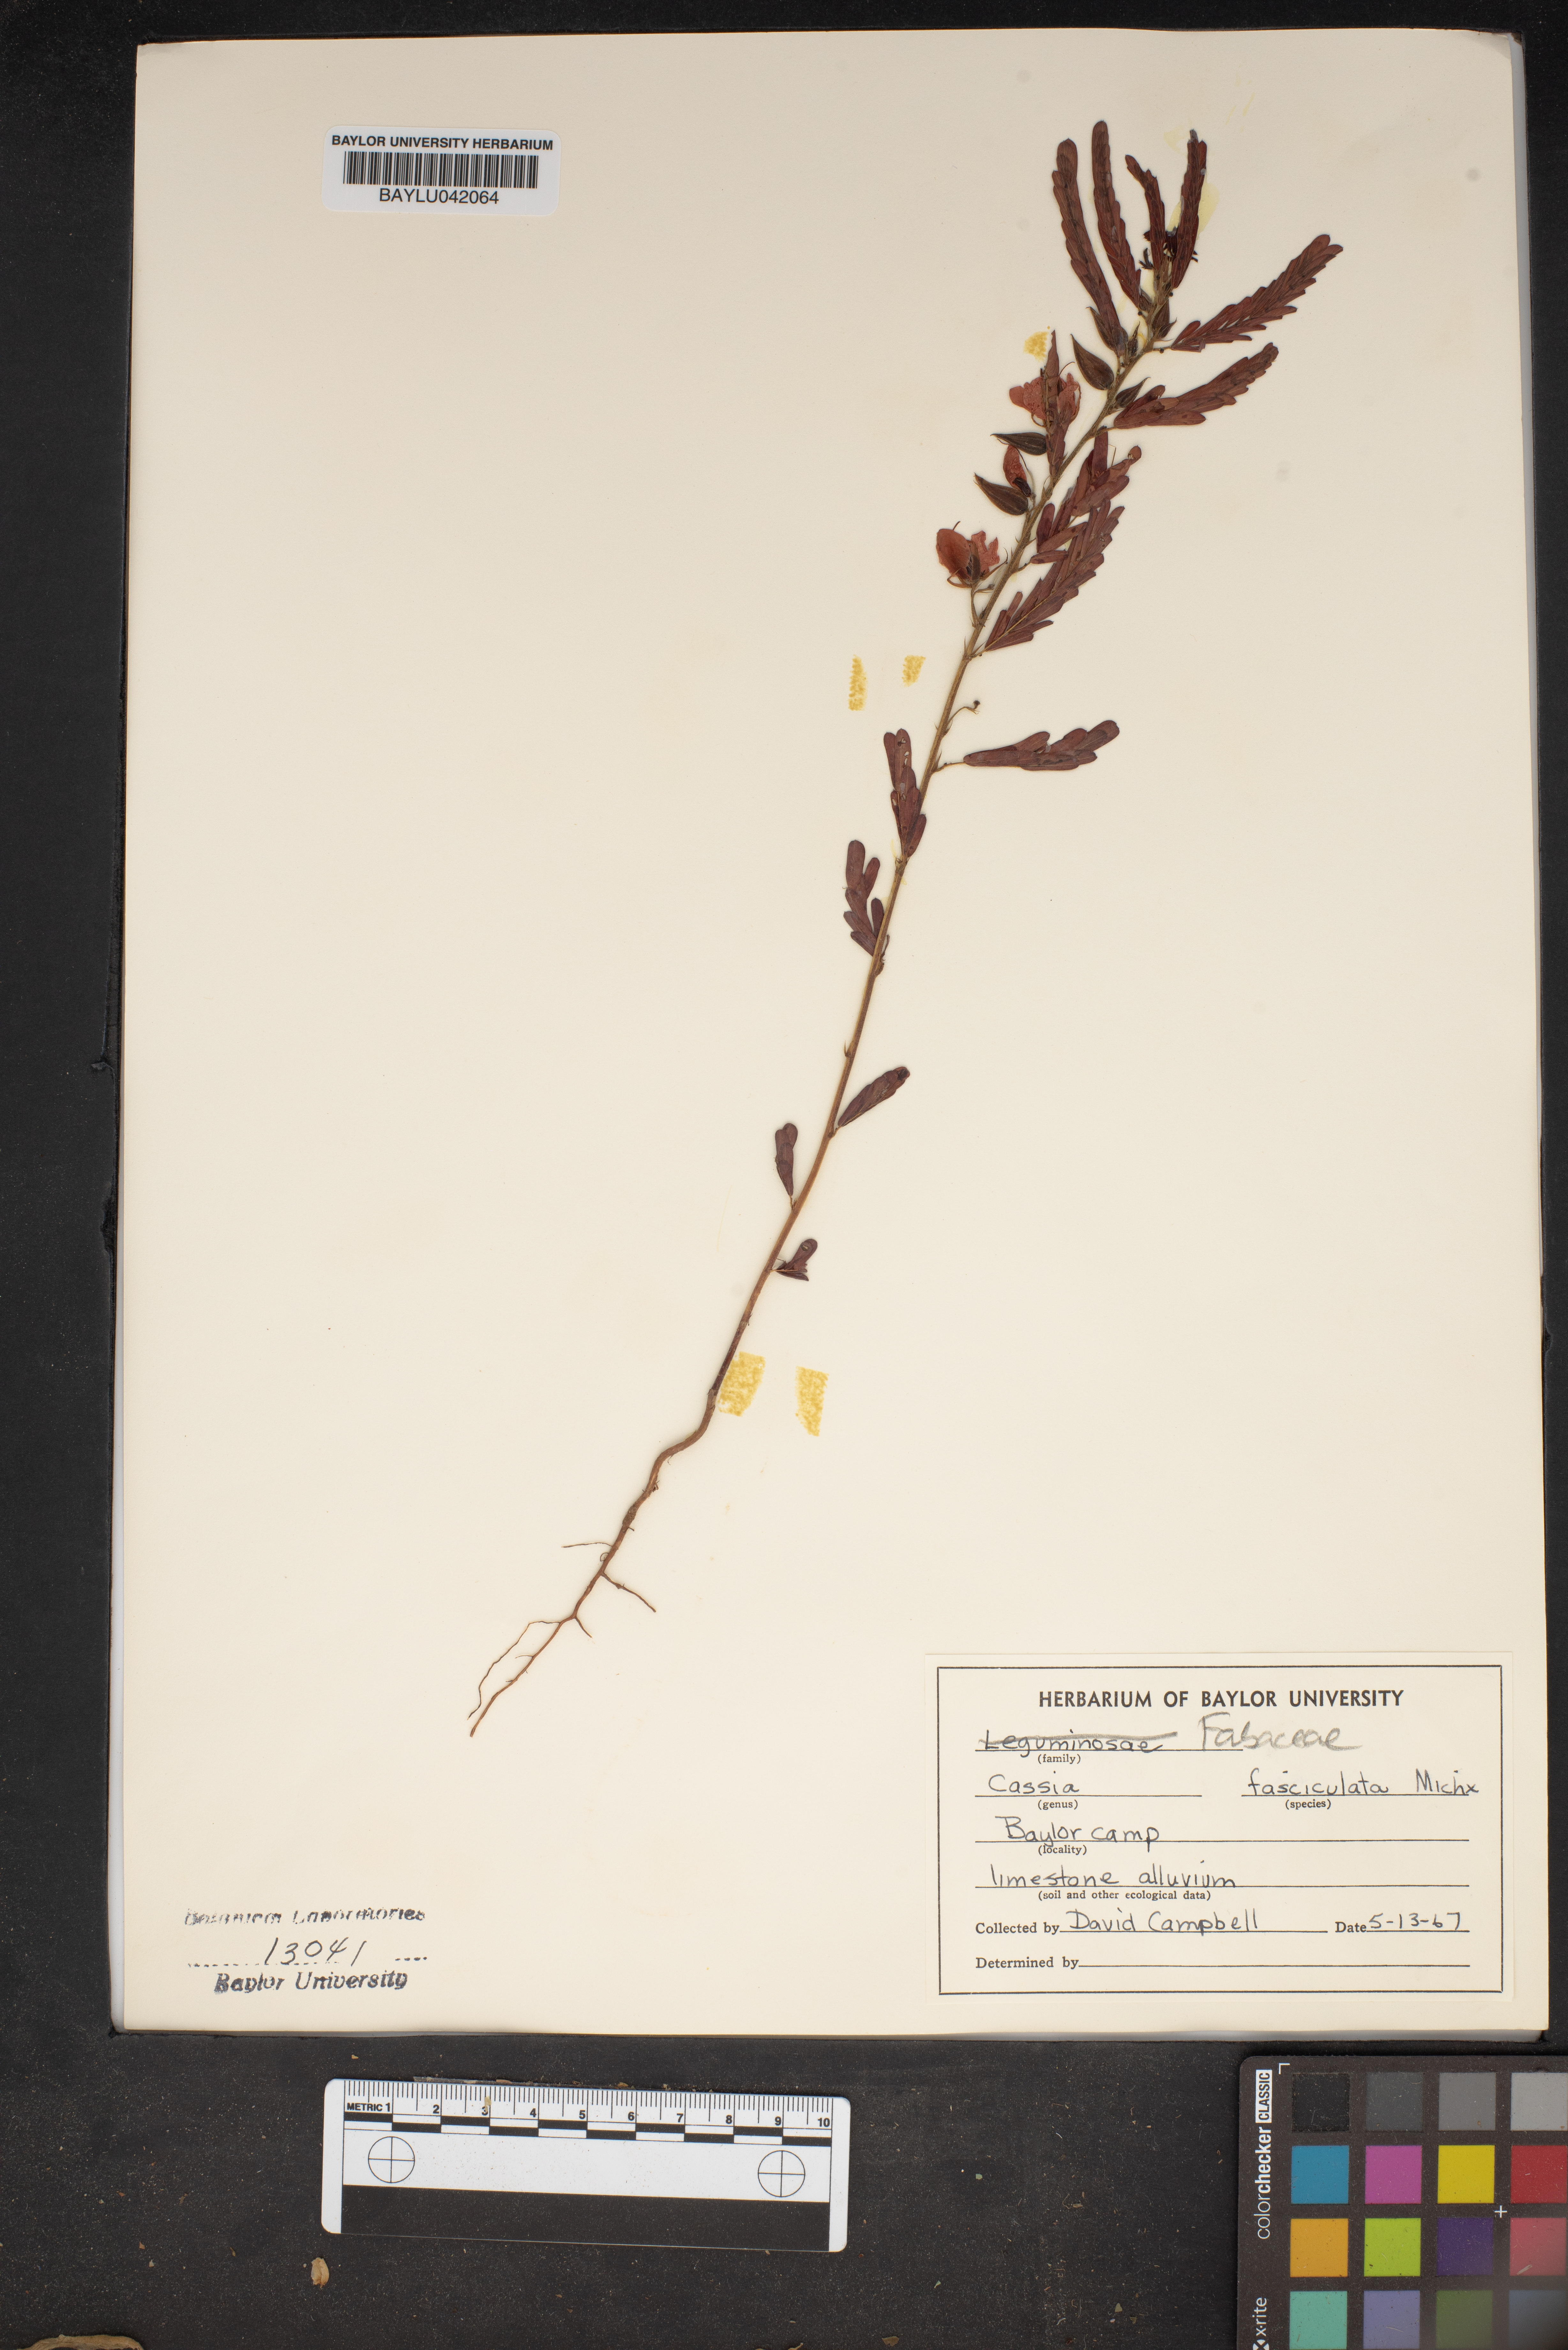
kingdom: Plantae
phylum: Tracheophyta
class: Magnoliopsida
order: Fabales
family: Fabaceae
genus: Chamaecrista
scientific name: Chamaecrista fasciculata
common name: Golden cassia
